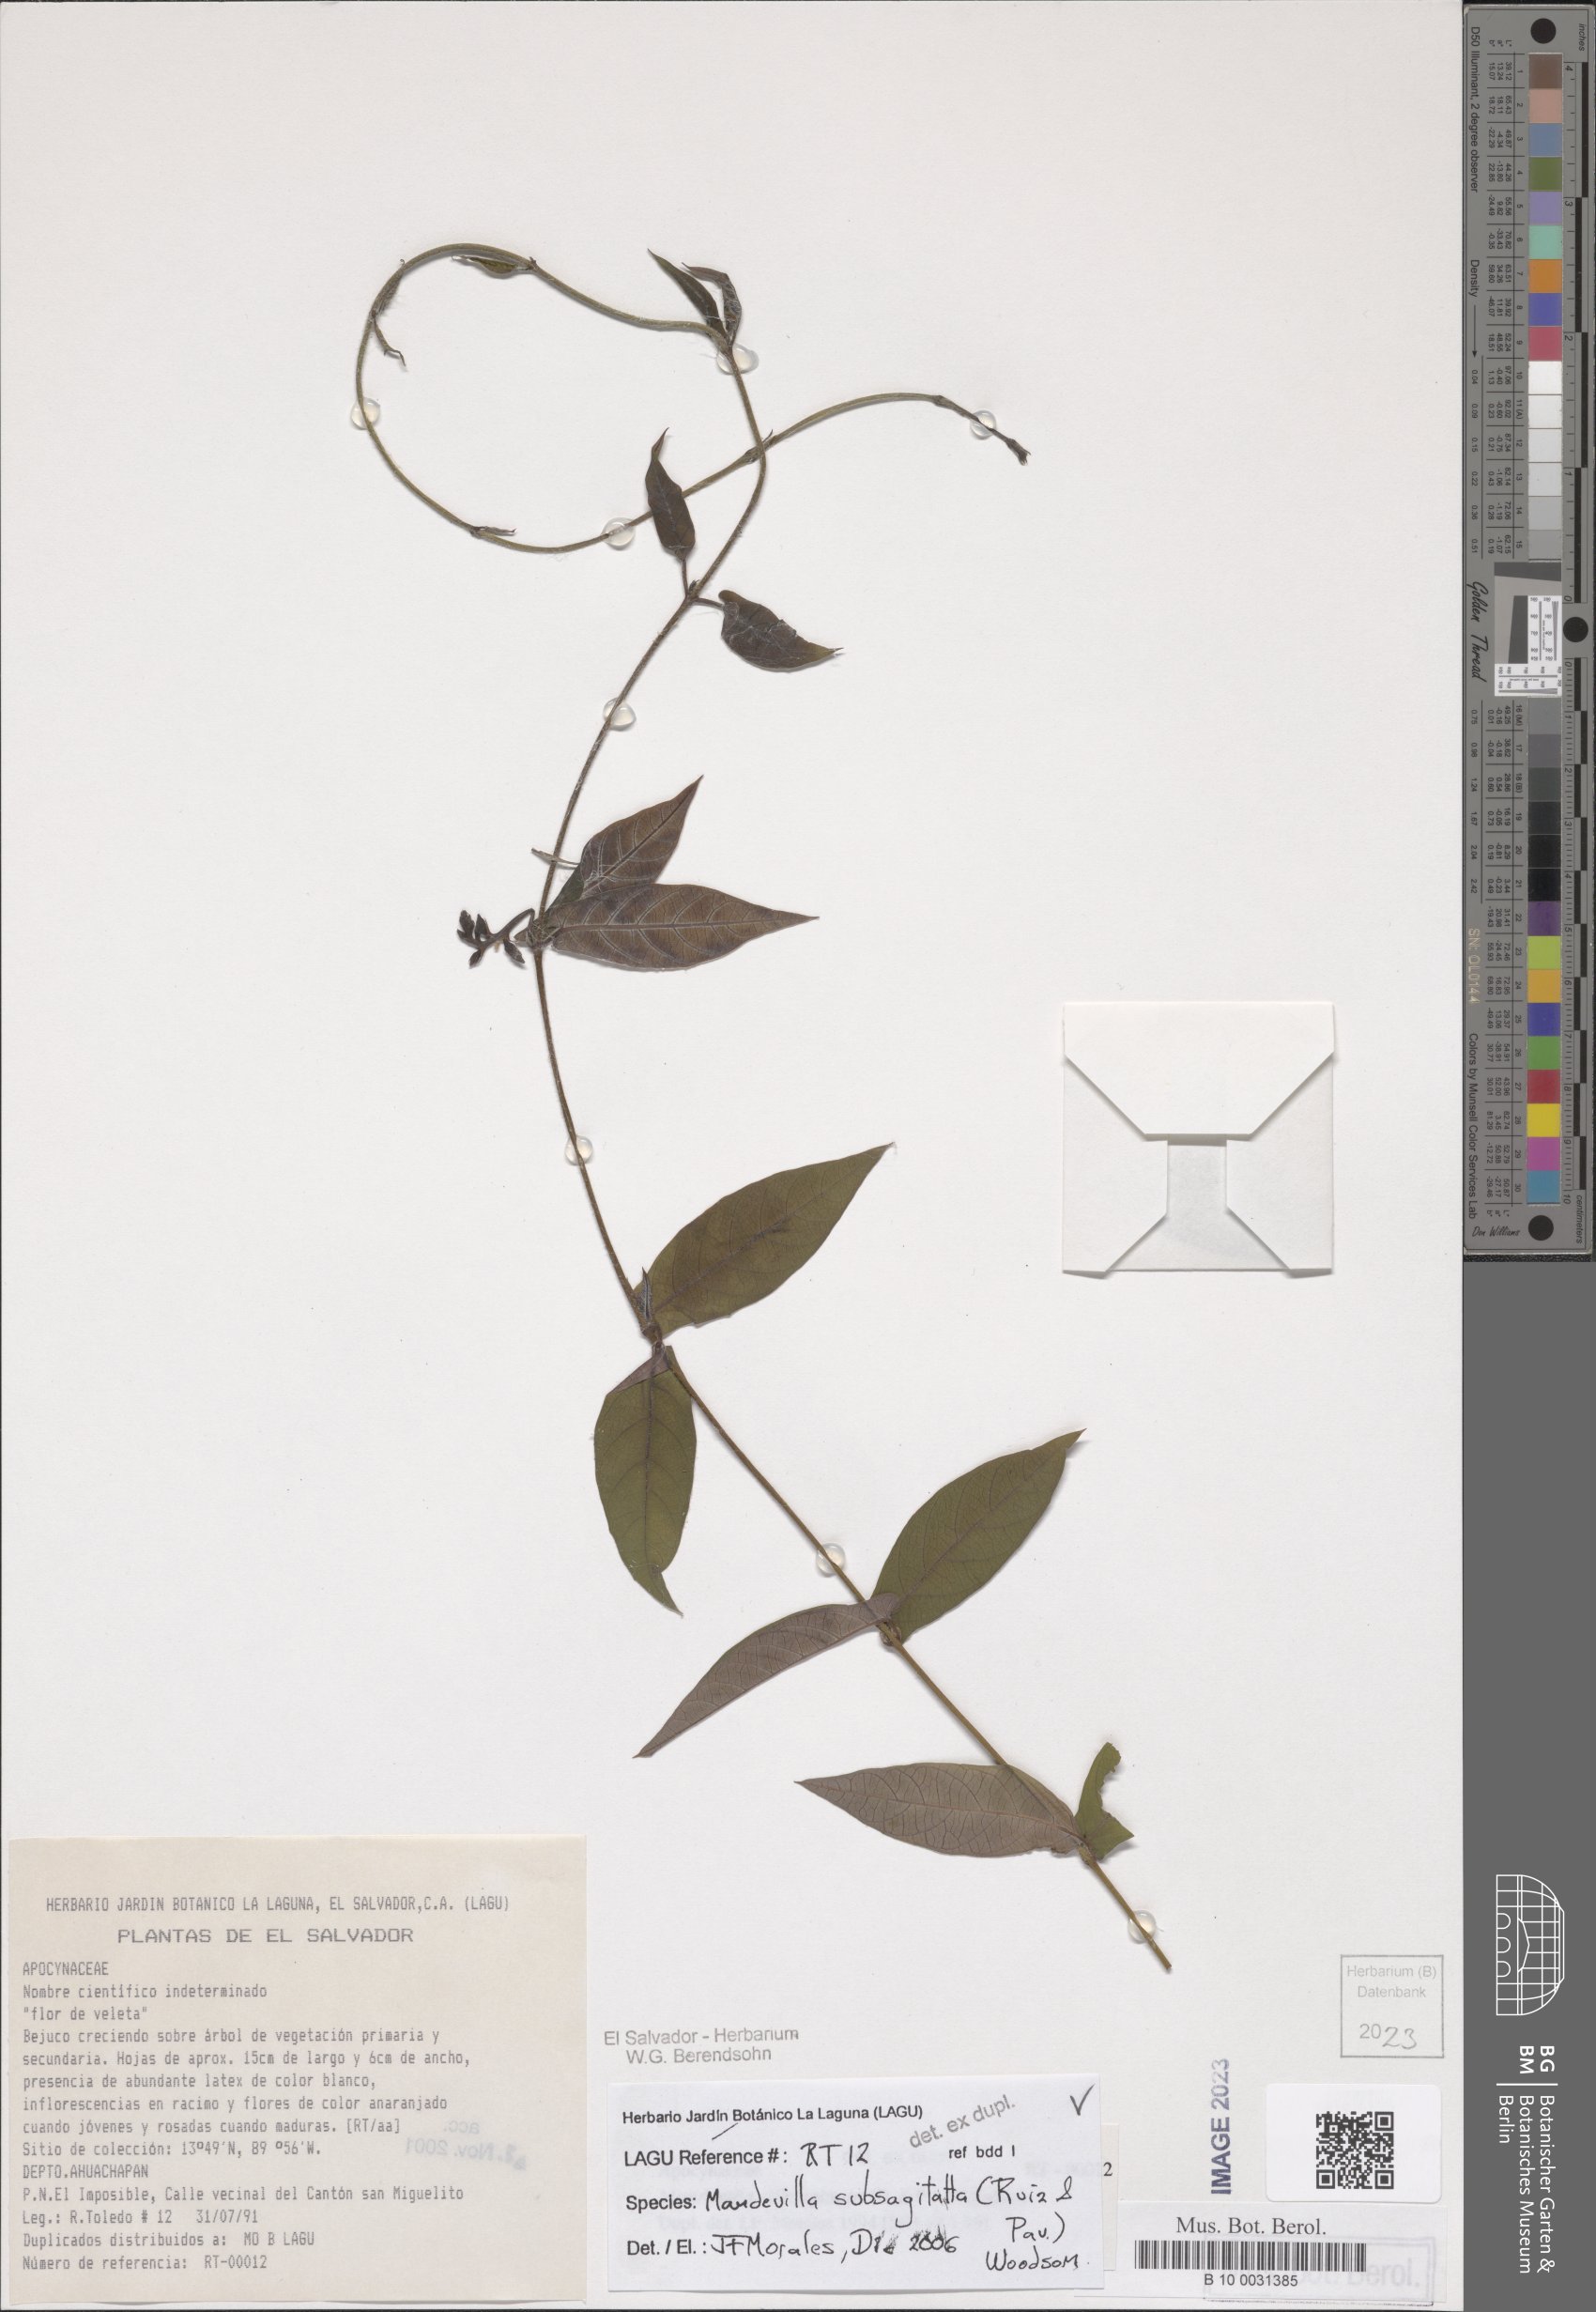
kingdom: Plantae
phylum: Tracheophyta
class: Magnoliopsida
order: Gentianales
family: Apocynaceae
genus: Mandevilla
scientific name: Mandevilla subsagittata
